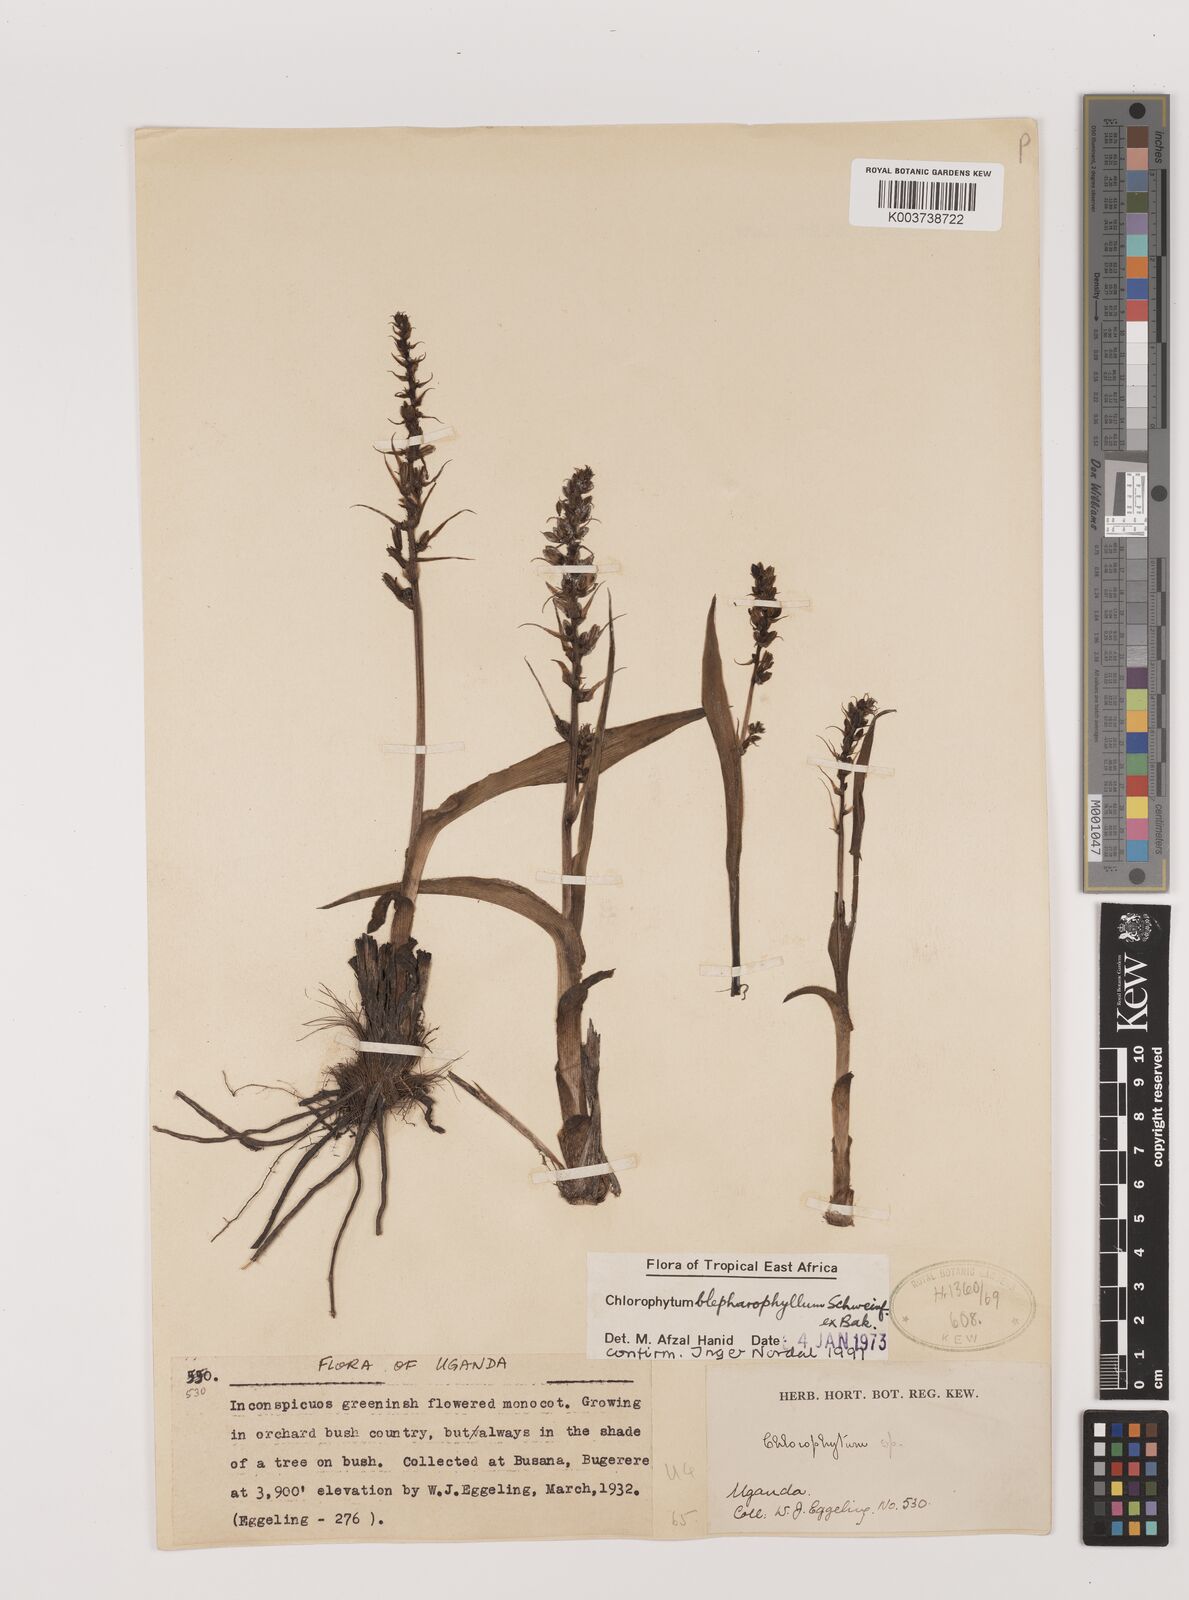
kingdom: Plantae
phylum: Tracheophyta
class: Liliopsida
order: Asparagales
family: Asparagaceae
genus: Chlorophytum
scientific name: Chlorophytum blepharophyllum
